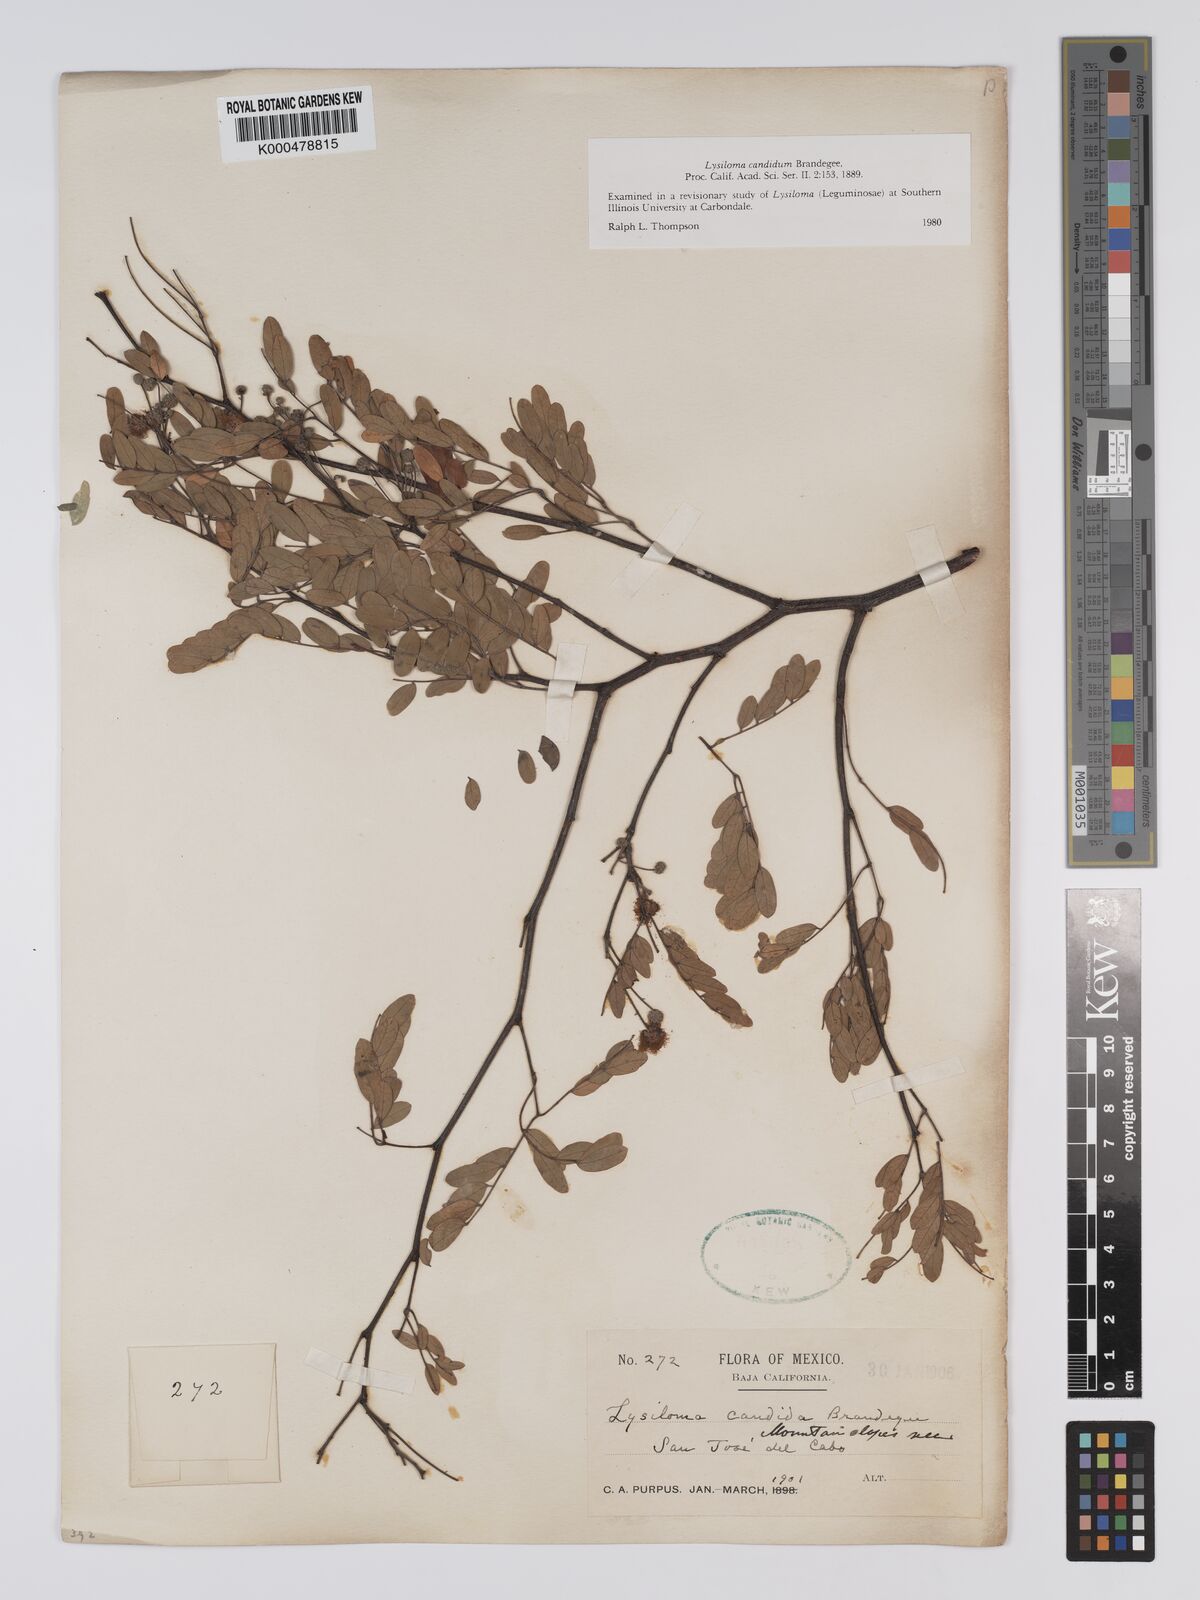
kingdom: Plantae
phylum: Tracheophyta
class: Magnoliopsida
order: Fabales
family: Fabaceae
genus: Lysiloma
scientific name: Lysiloma candidum
